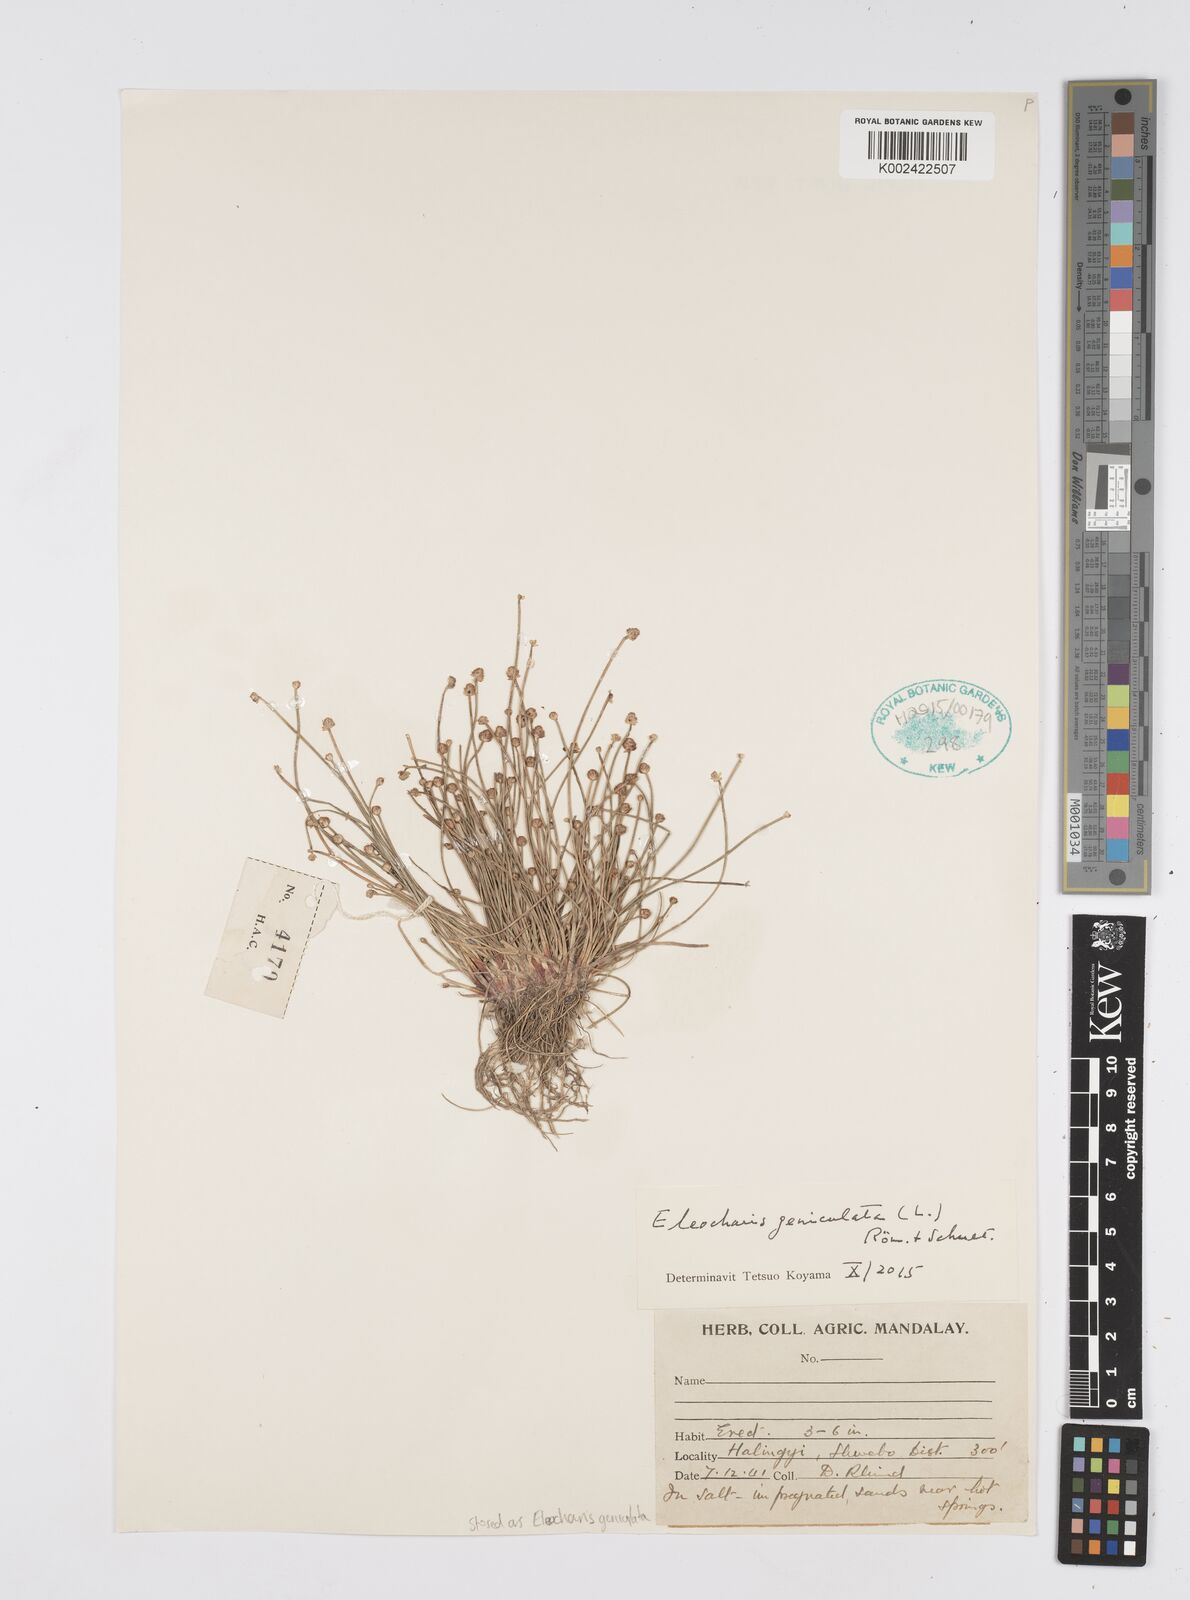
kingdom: Plantae
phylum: Tracheophyta
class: Liliopsida
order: Poales
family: Cyperaceae
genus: Eleocharis
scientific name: Eleocharis geniculata
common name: Canada spikesedge
